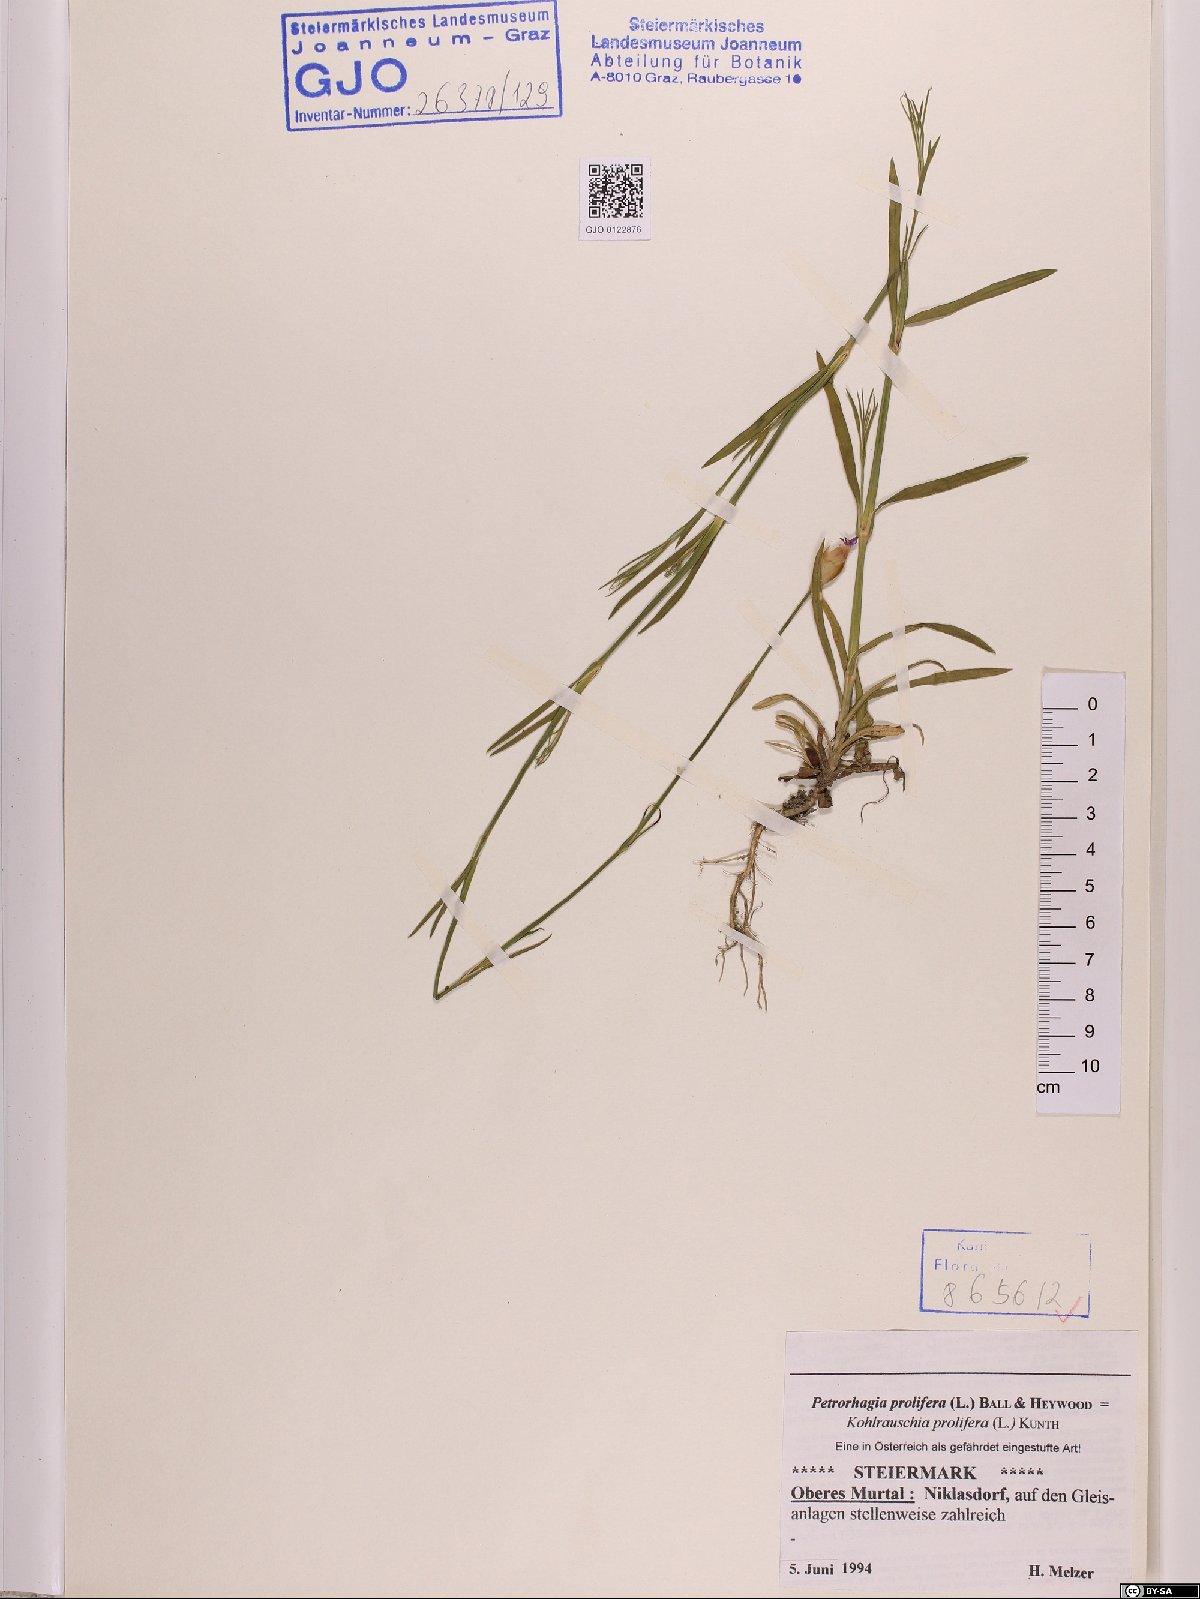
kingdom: Plantae
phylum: Tracheophyta
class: Magnoliopsida
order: Caryophyllales
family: Caryophyllaceae
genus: Petrorhagia
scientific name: Petrorhagia prolifera
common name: Proliferous pink
